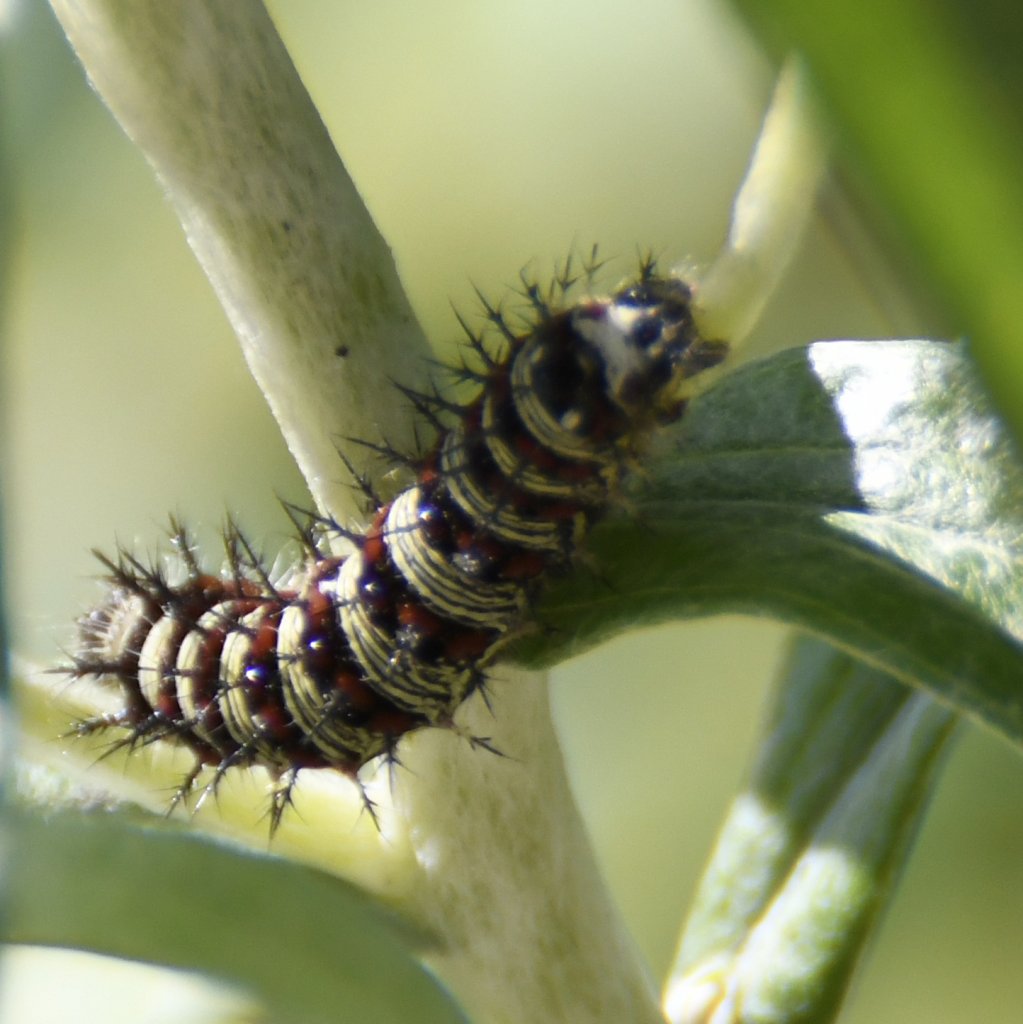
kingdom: Animalia
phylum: Arthropoda
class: Insecta
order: Lepidoptera
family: Nymphalidae
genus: Vanessa
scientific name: Vanessa virginiensis
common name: American Lady
